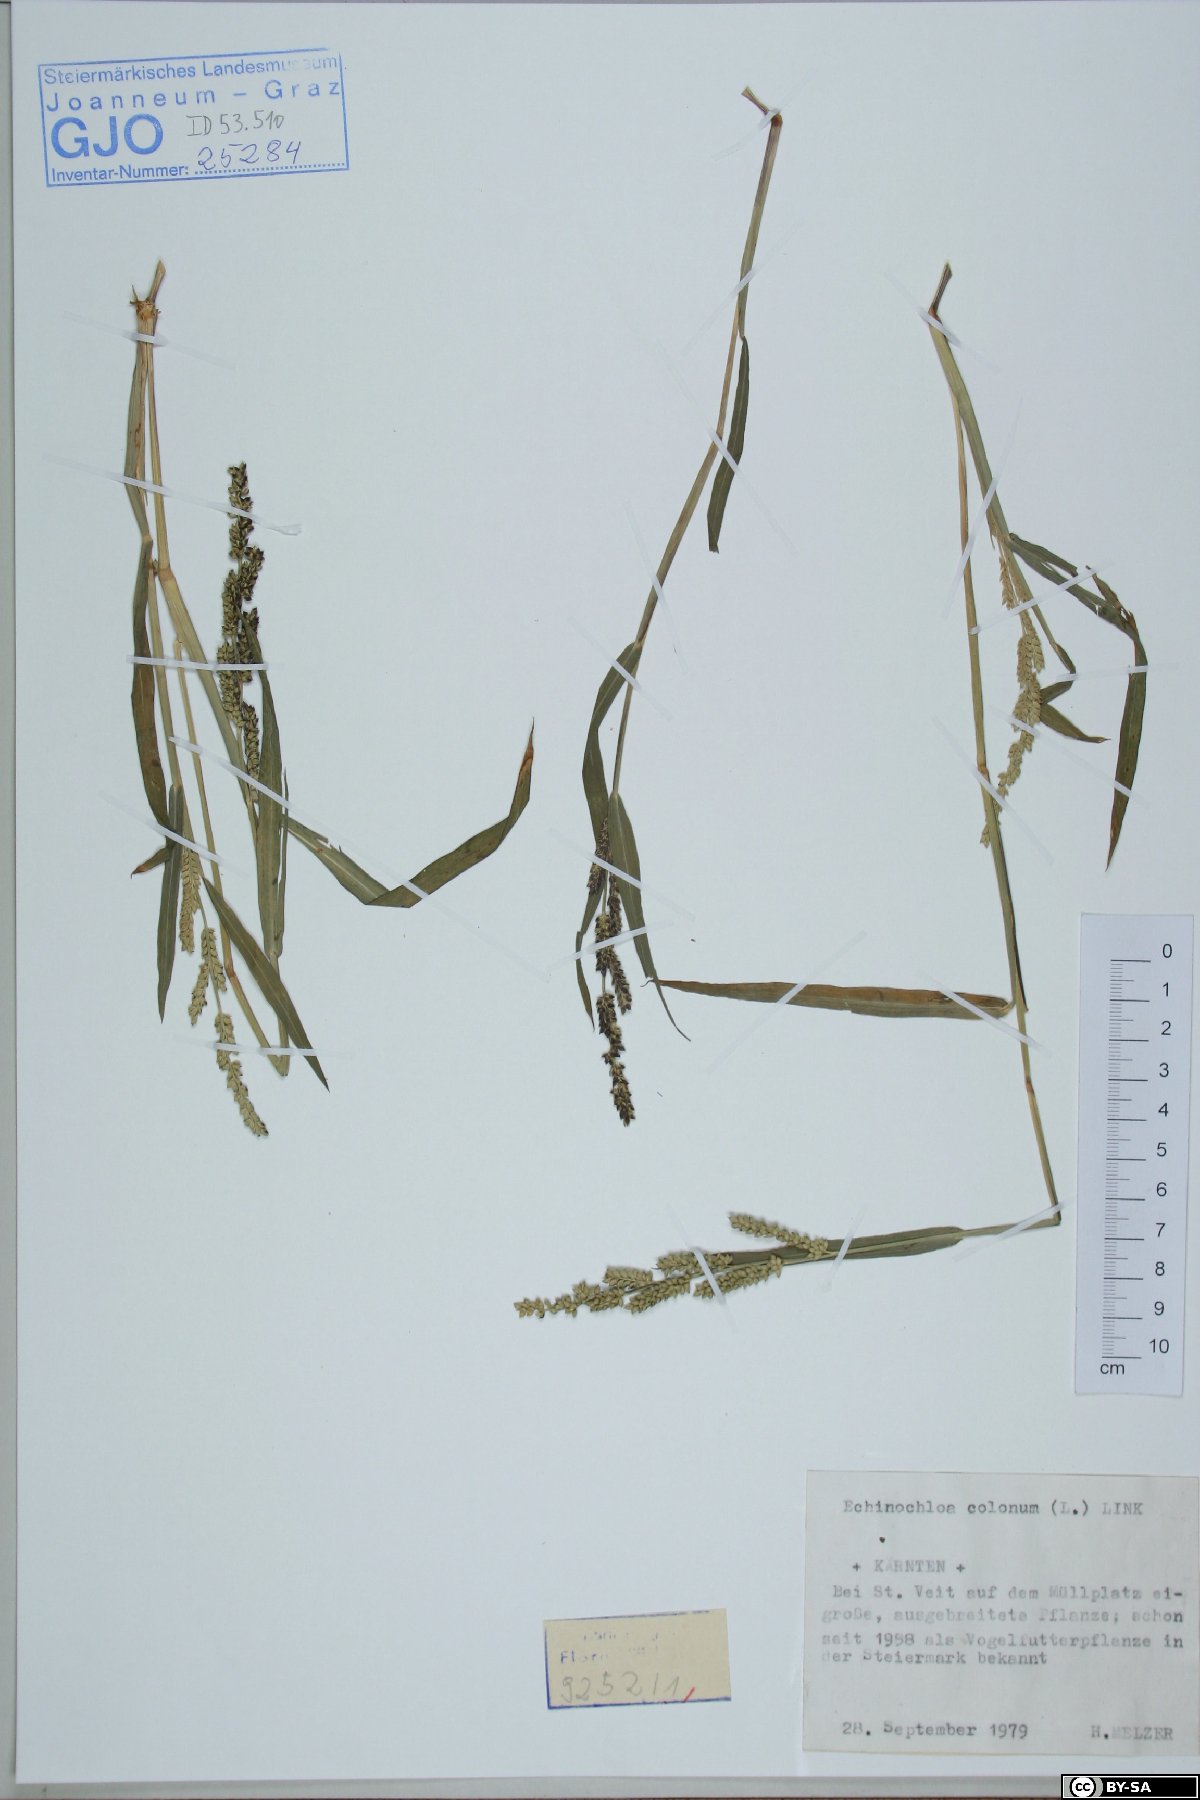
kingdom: Plantae
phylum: Tracheophyta
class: Liliopsida
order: Poales
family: Poaceae
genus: Echinochloa
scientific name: Echinochloa colonum
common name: Jungle rice
